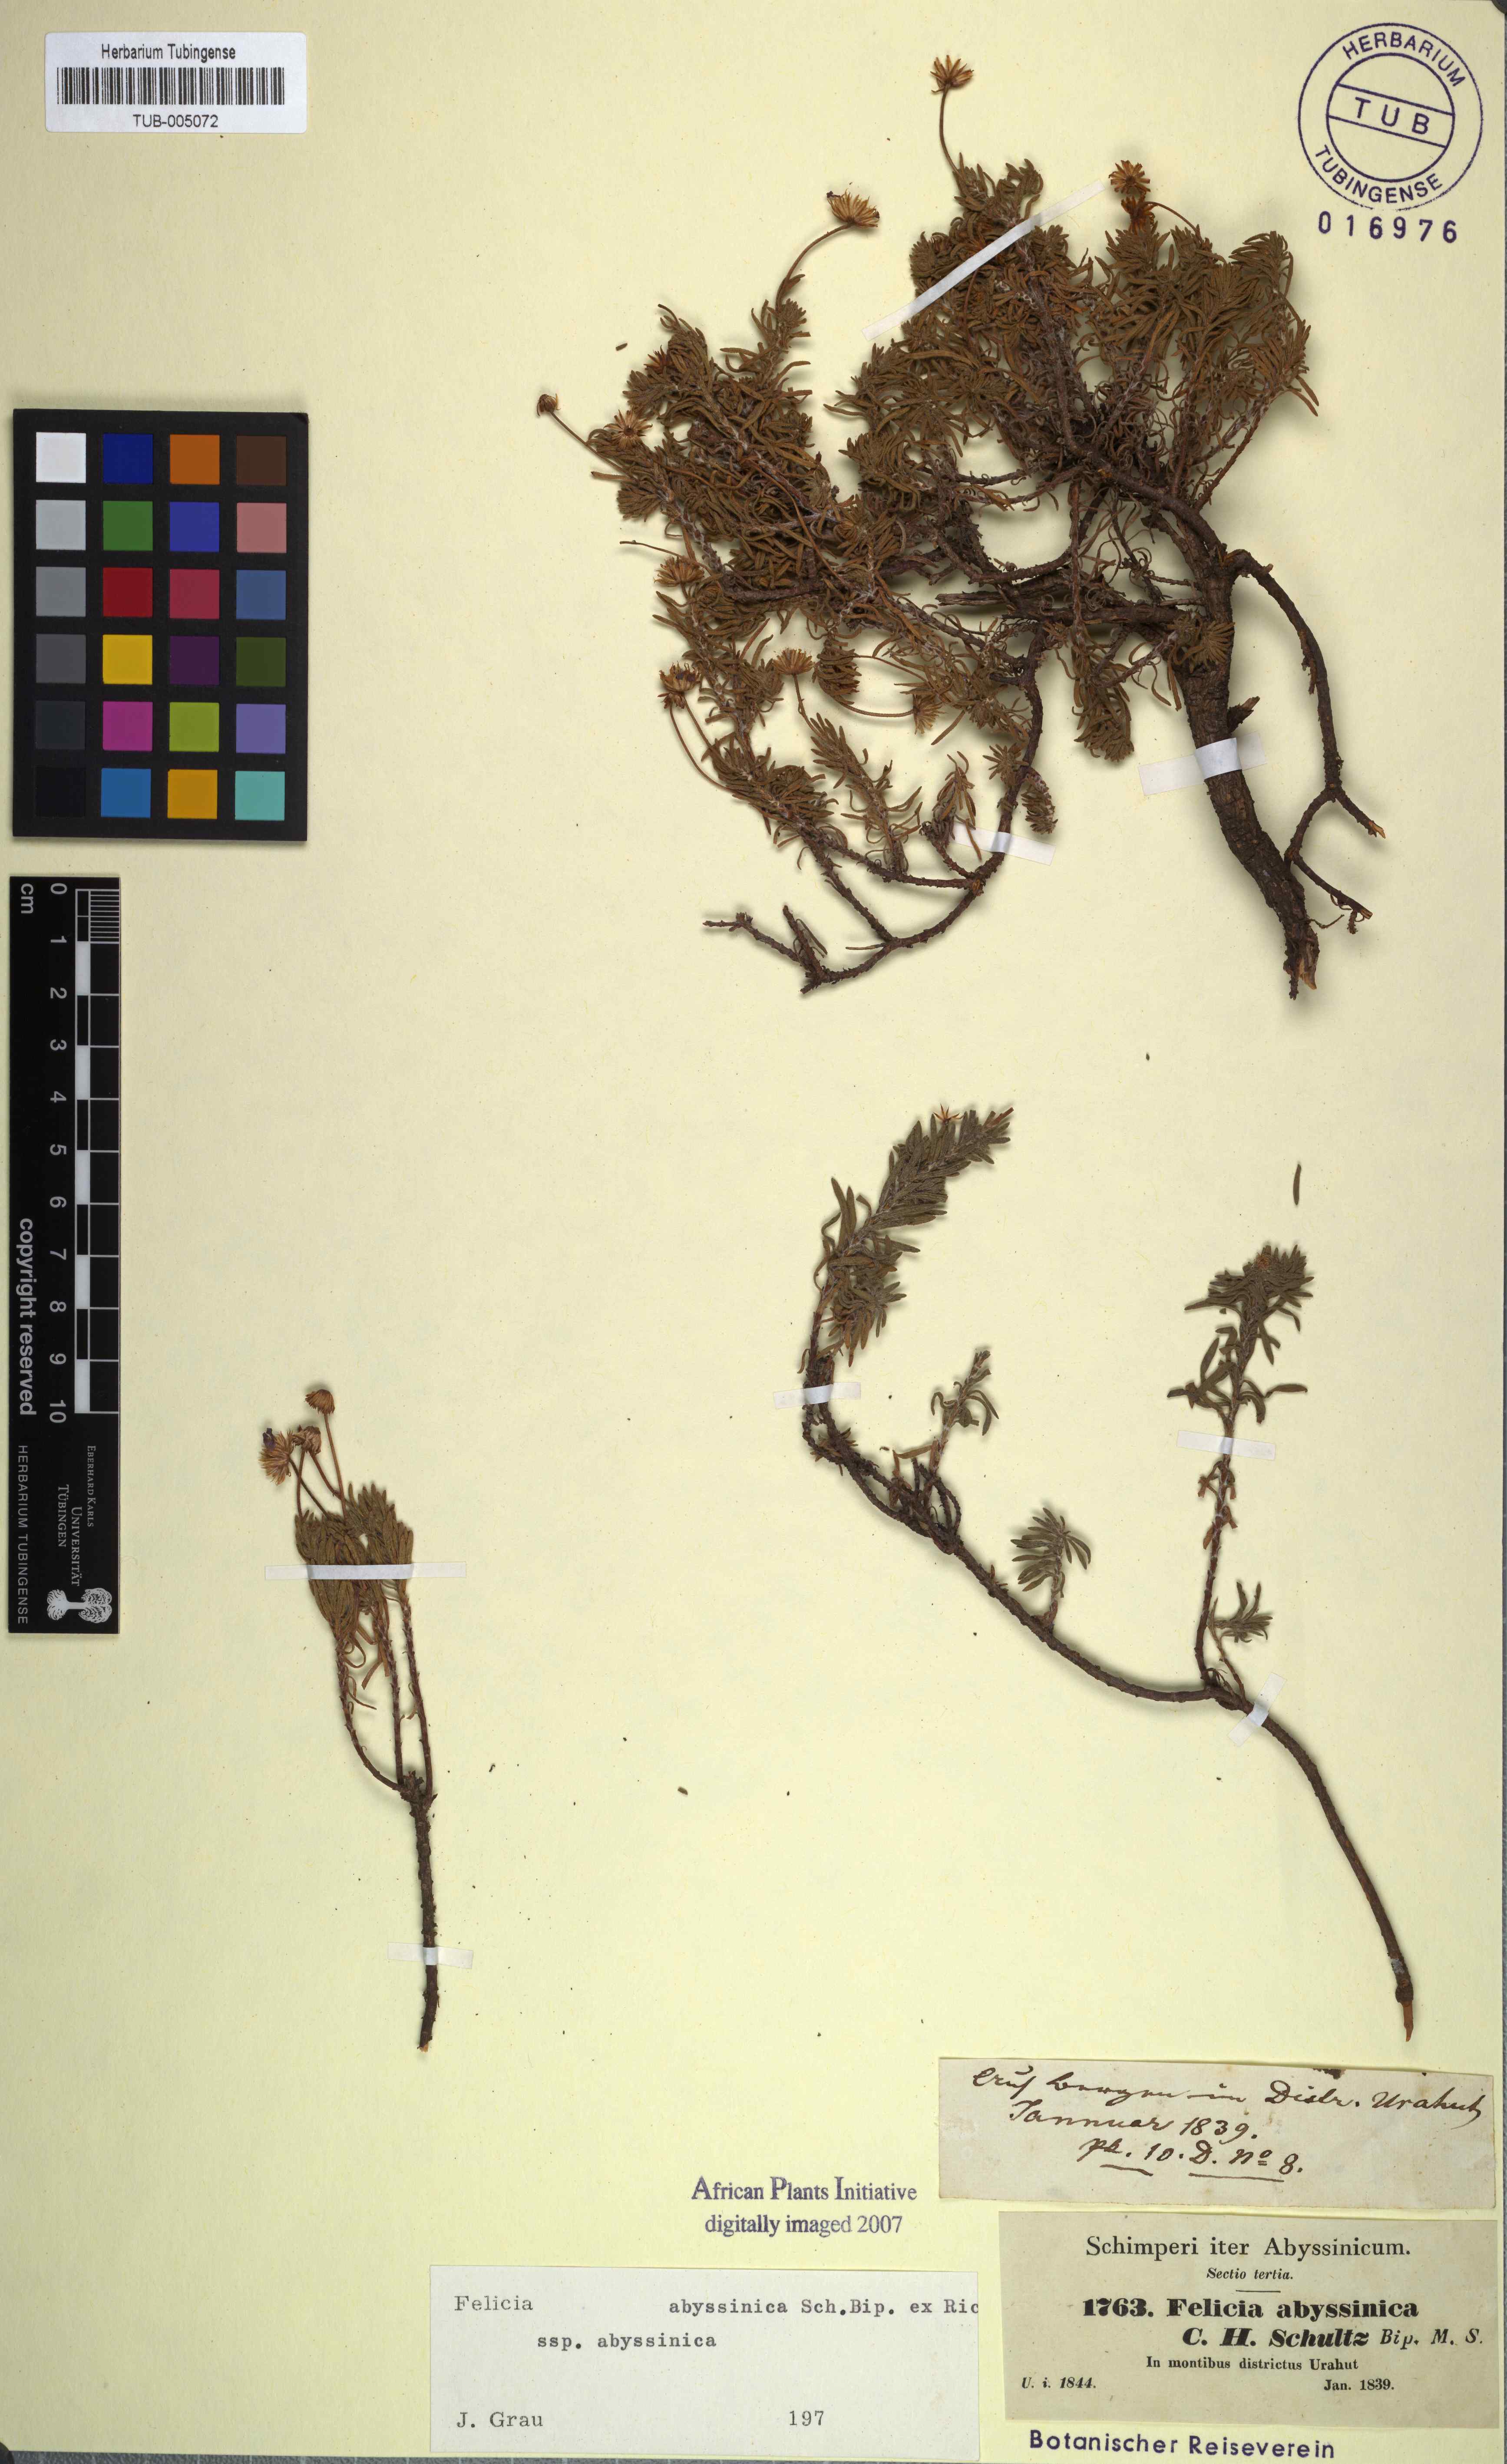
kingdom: Plantae
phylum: Tracheophyta
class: Magnoliopsida
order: Asterales
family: Asteraceae
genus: Felicia
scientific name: Felicia abyssinica
